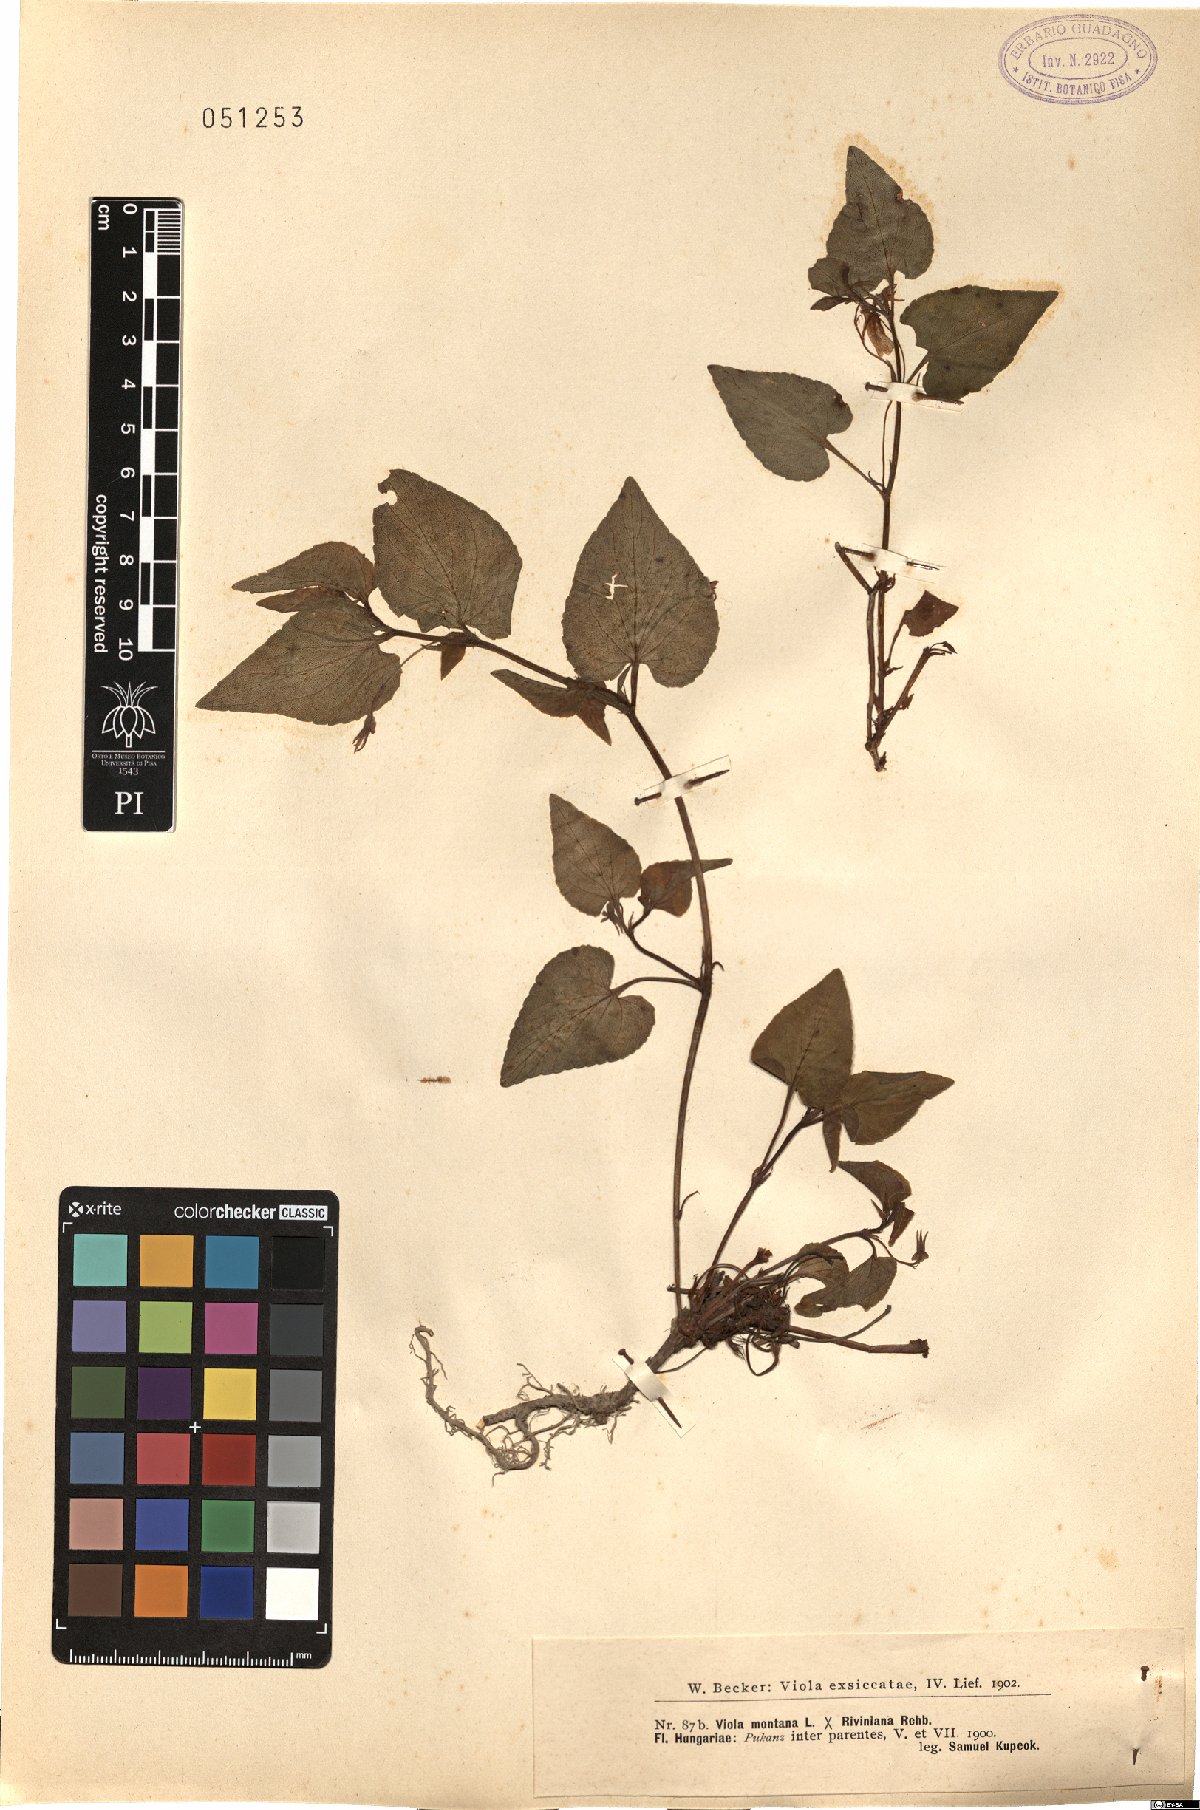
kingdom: Plantae
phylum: Tracheophyta
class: Magnoliopsida
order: Malpighiales
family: Violaceae
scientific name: Violaceae
